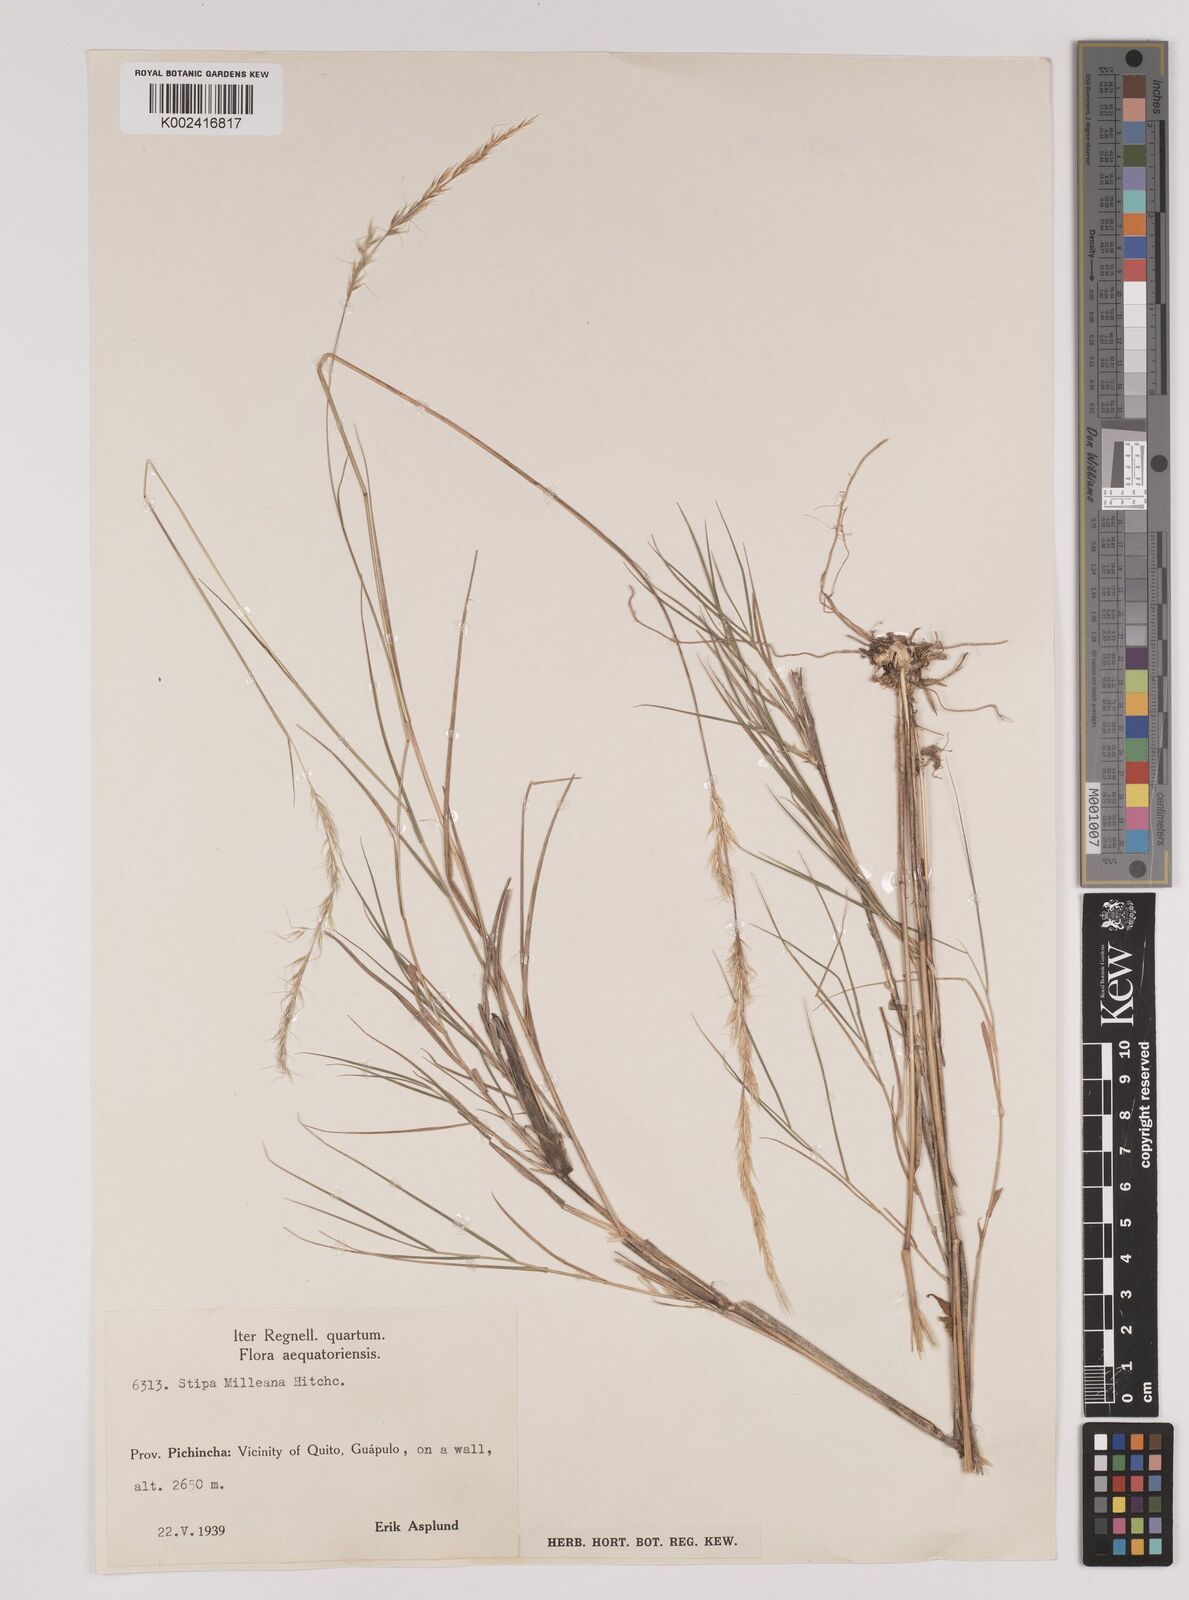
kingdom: Plantae
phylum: Tracheophyta
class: Liliopsida
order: Poales
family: Poaceae
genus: Stipa
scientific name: Stipa milleana
